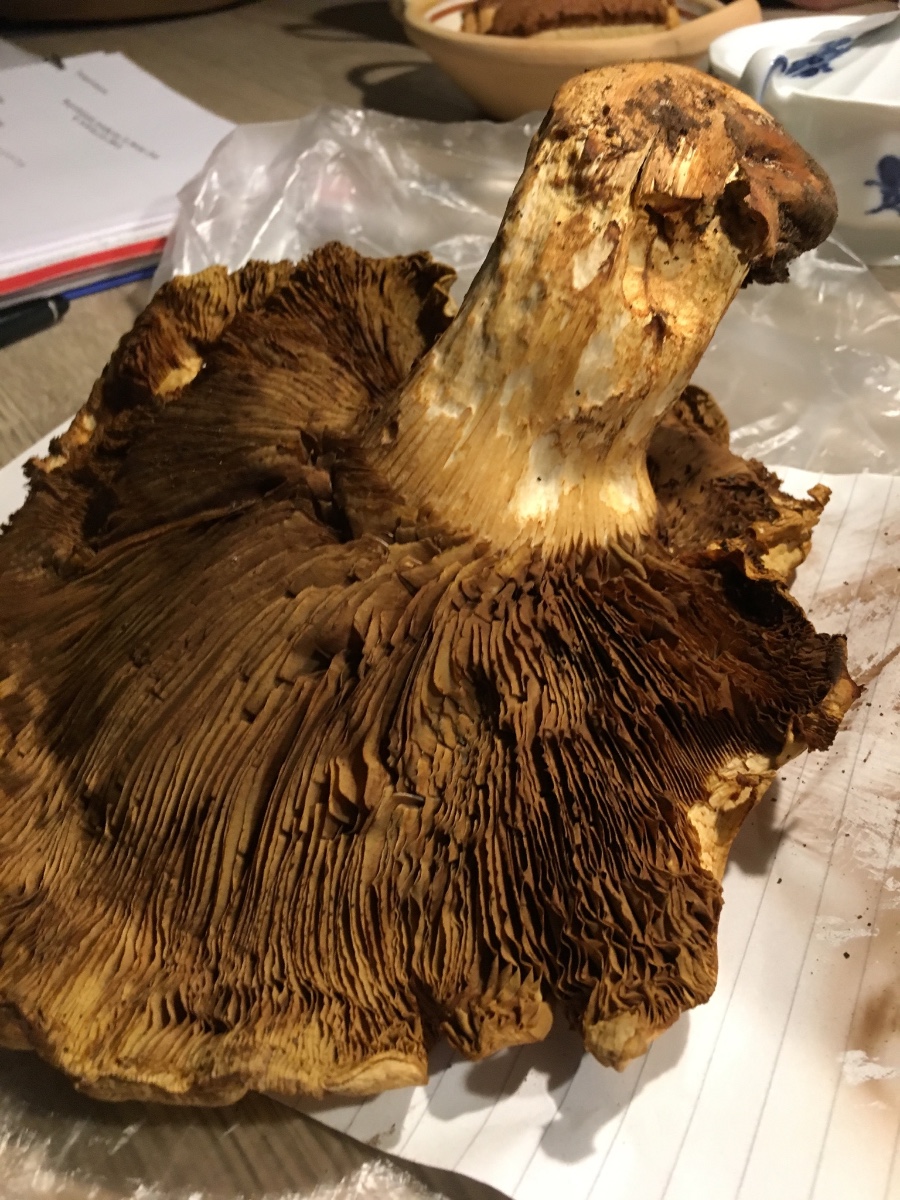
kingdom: Fungi
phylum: Basidiomycota
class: Agaricomycetes
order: Agaricales
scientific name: Agaricales
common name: champignonordenen
